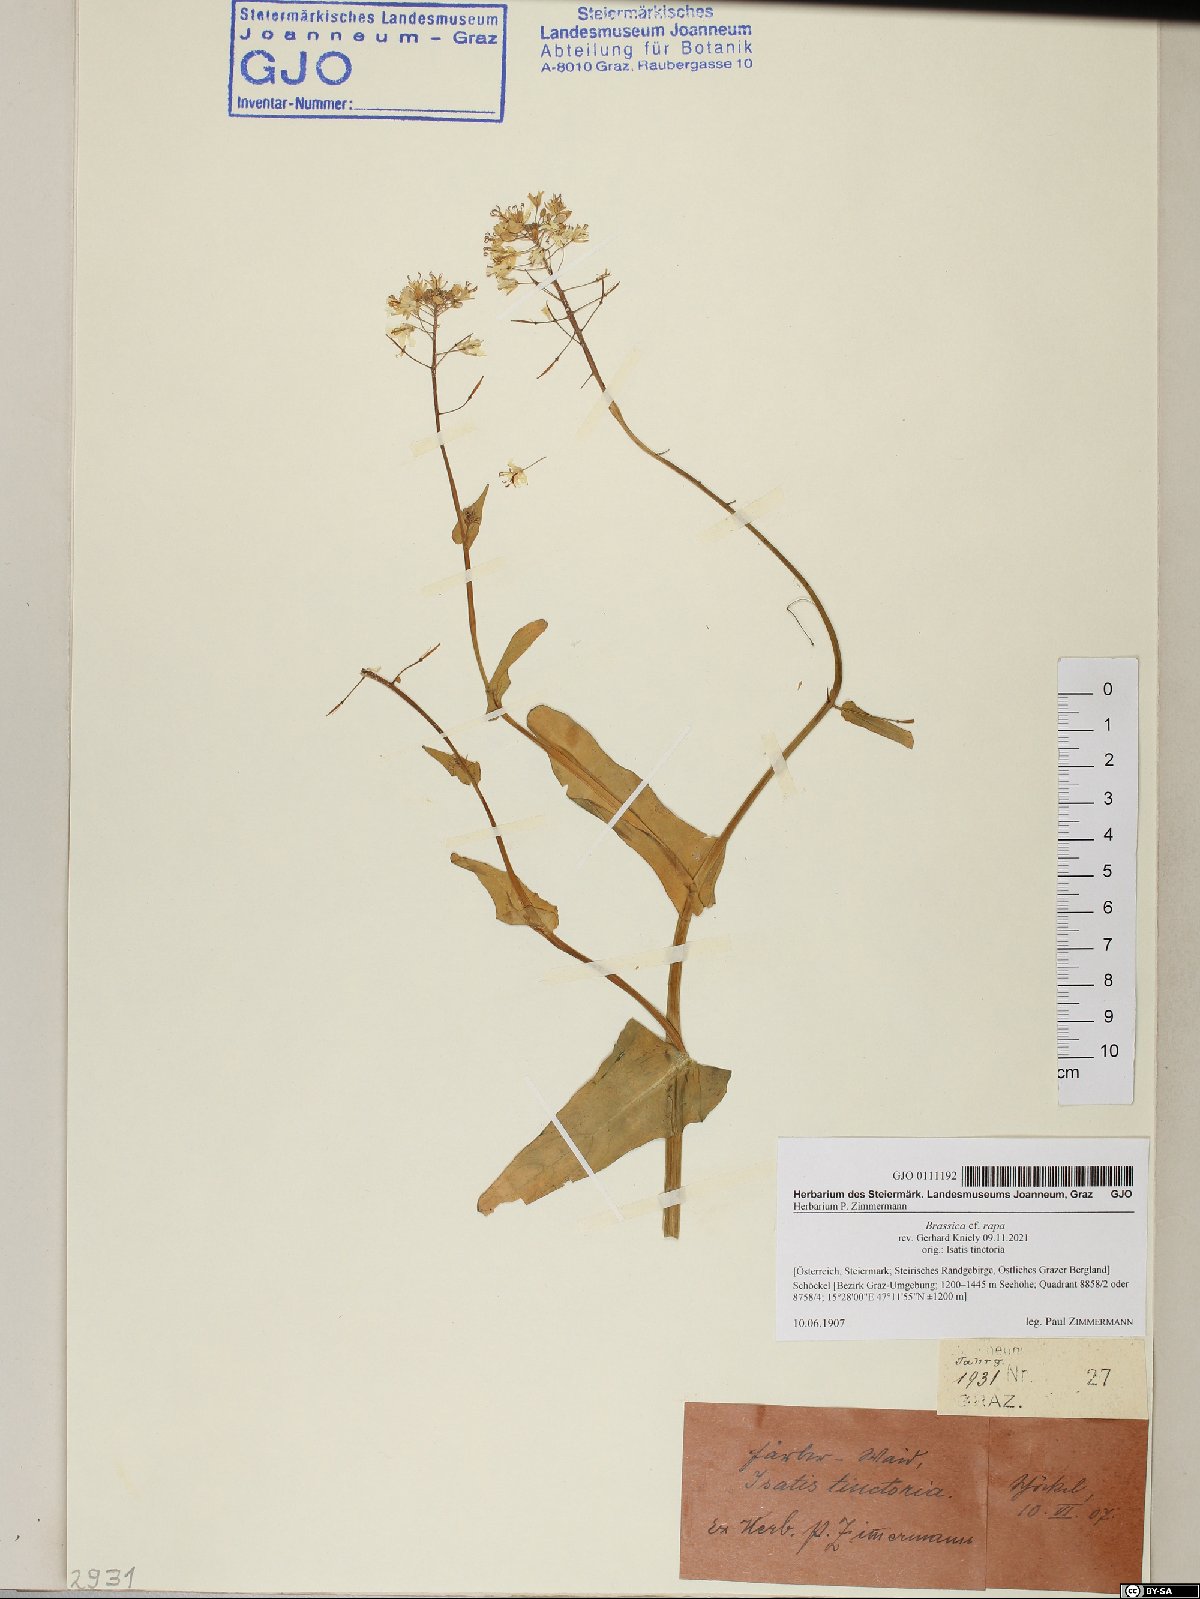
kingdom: Plantae
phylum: Tracheophyta
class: Magnoliopsida
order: Brassicales
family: Brassicaceae
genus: Brassica
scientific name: Brassica rapa
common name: Field mustard
